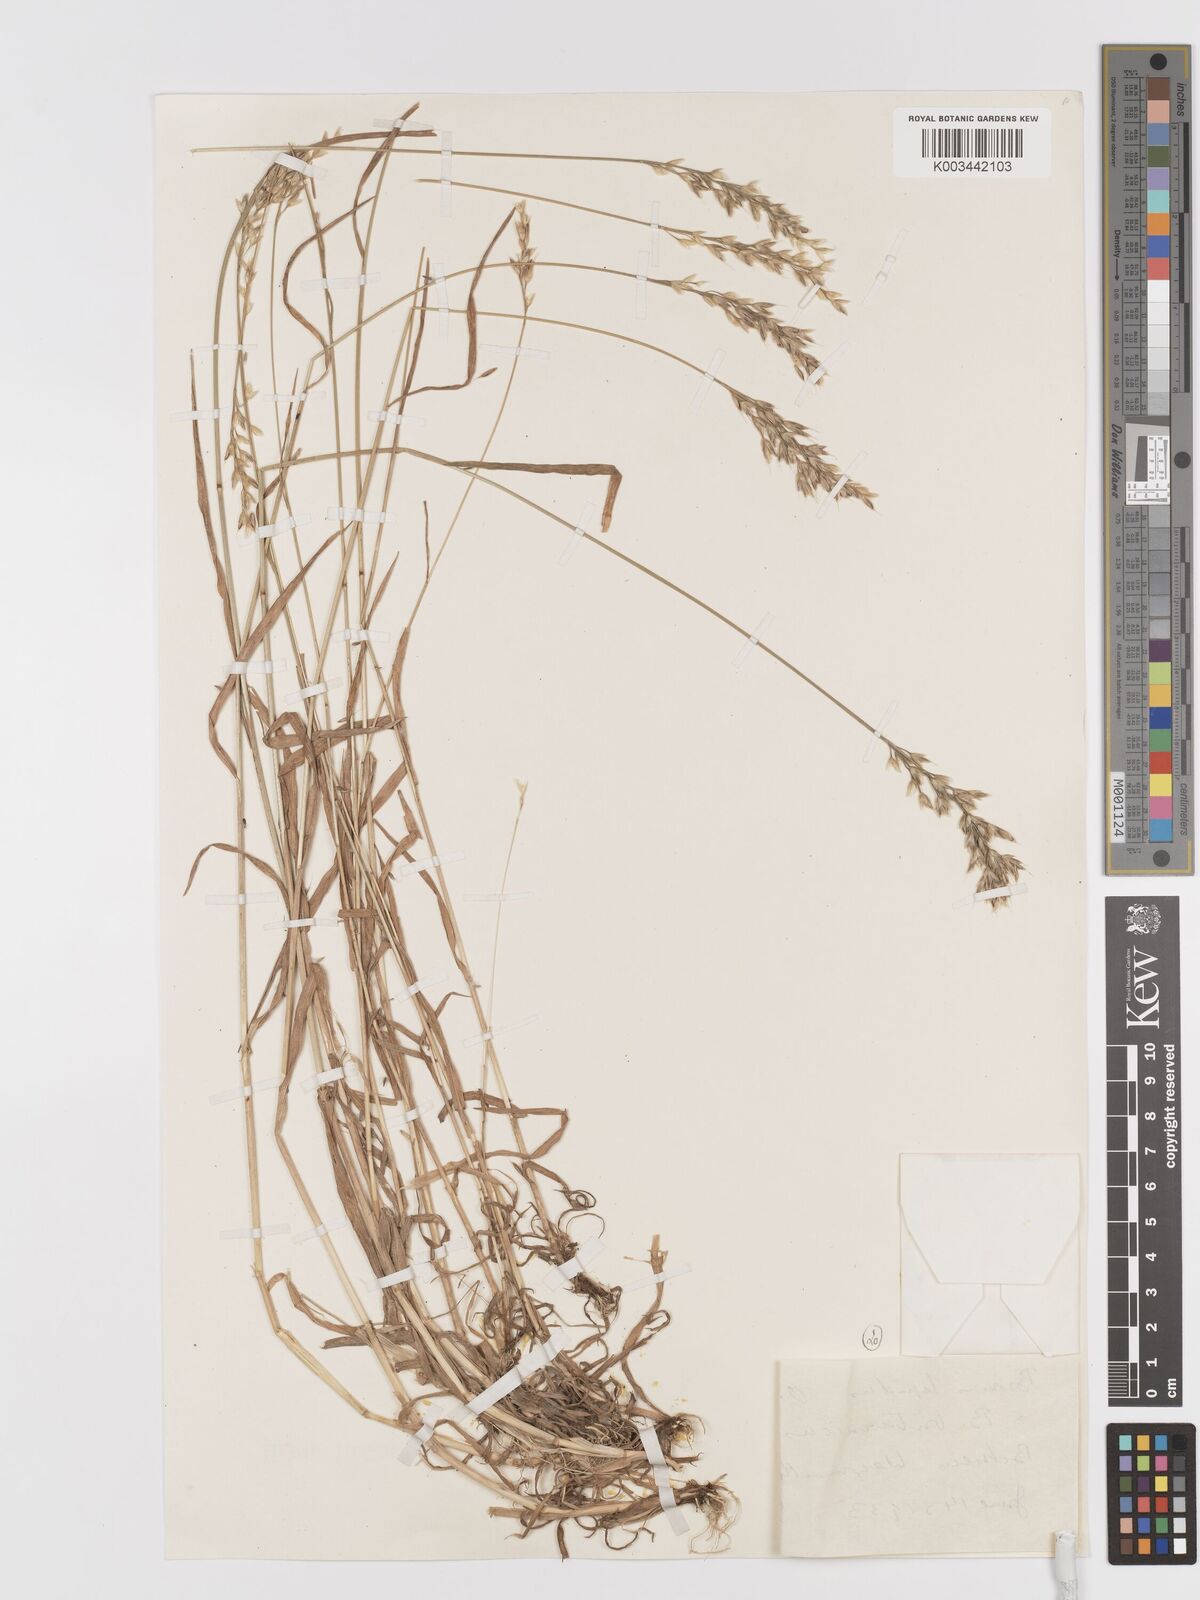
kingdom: Plantae
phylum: Tracheophyta
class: Liliopsida
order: Poales
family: Poaceae
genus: Bromus
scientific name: Bromus lepidus
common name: Slender soft-brome
